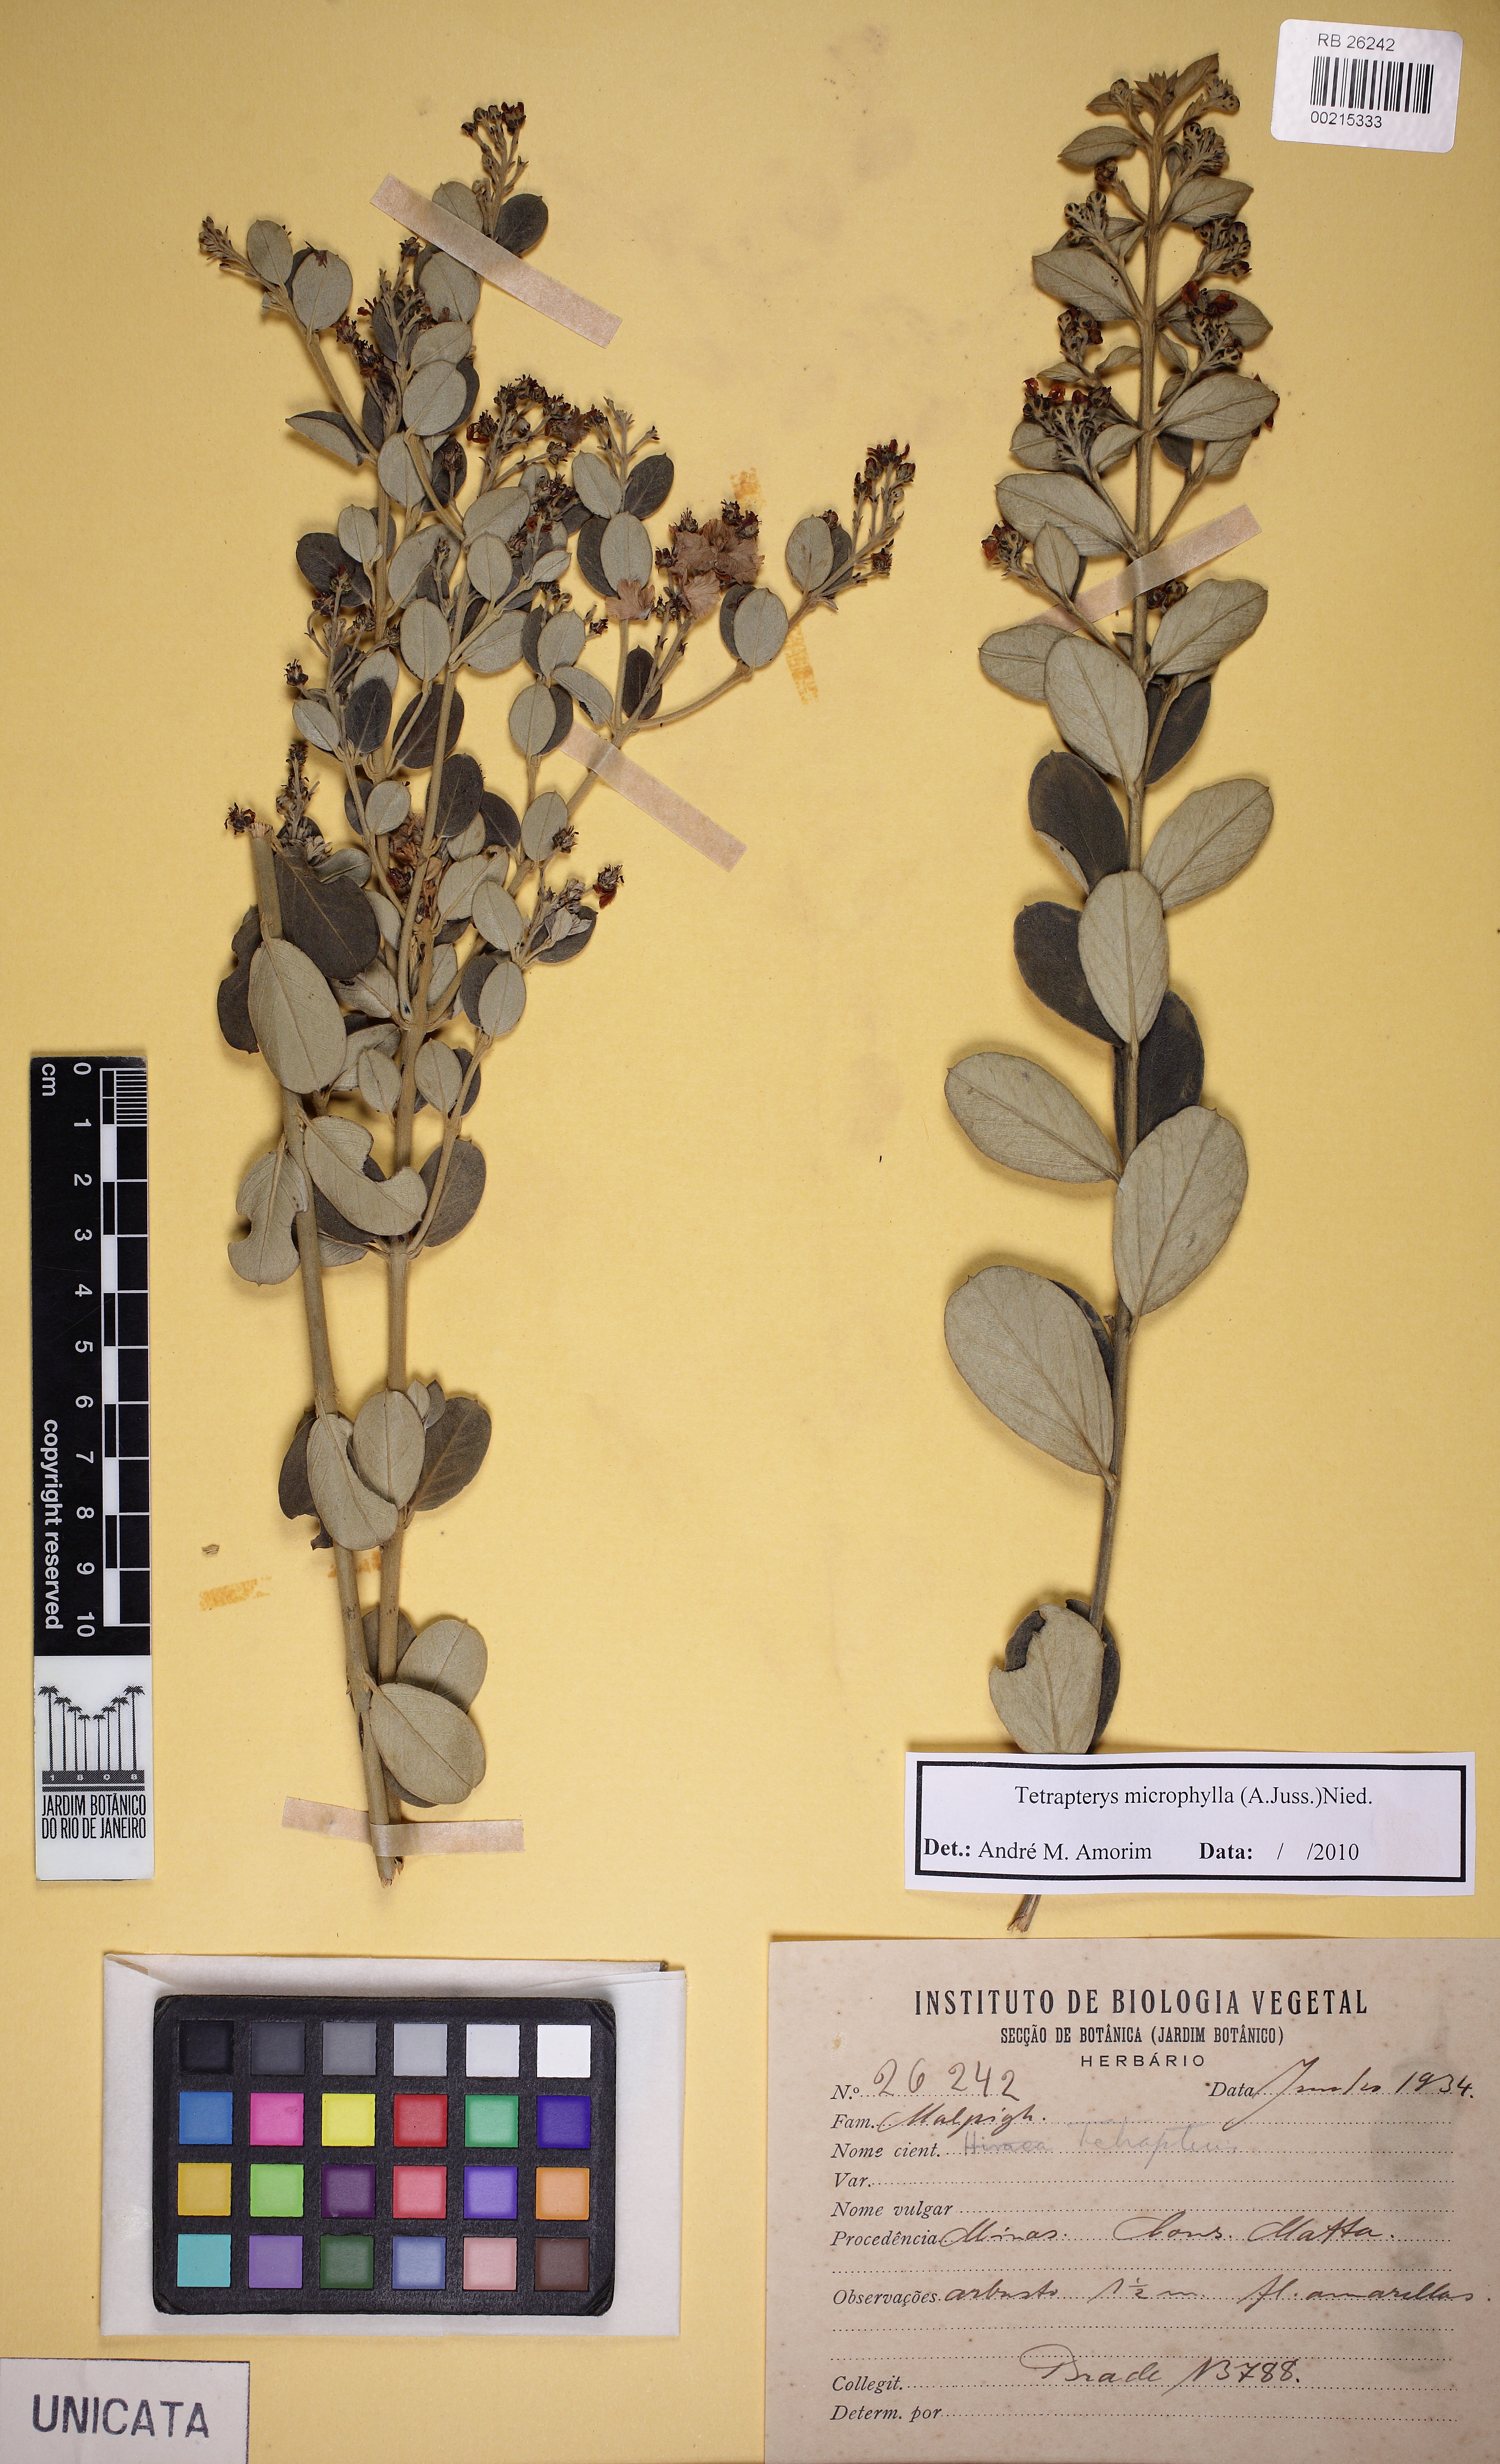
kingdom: Plantae
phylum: Tracheophyta
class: Magnoliopsida
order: Malpighiales
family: Malpighiaceae
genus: Glicophyllum
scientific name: Glicophyllum microphyllum
